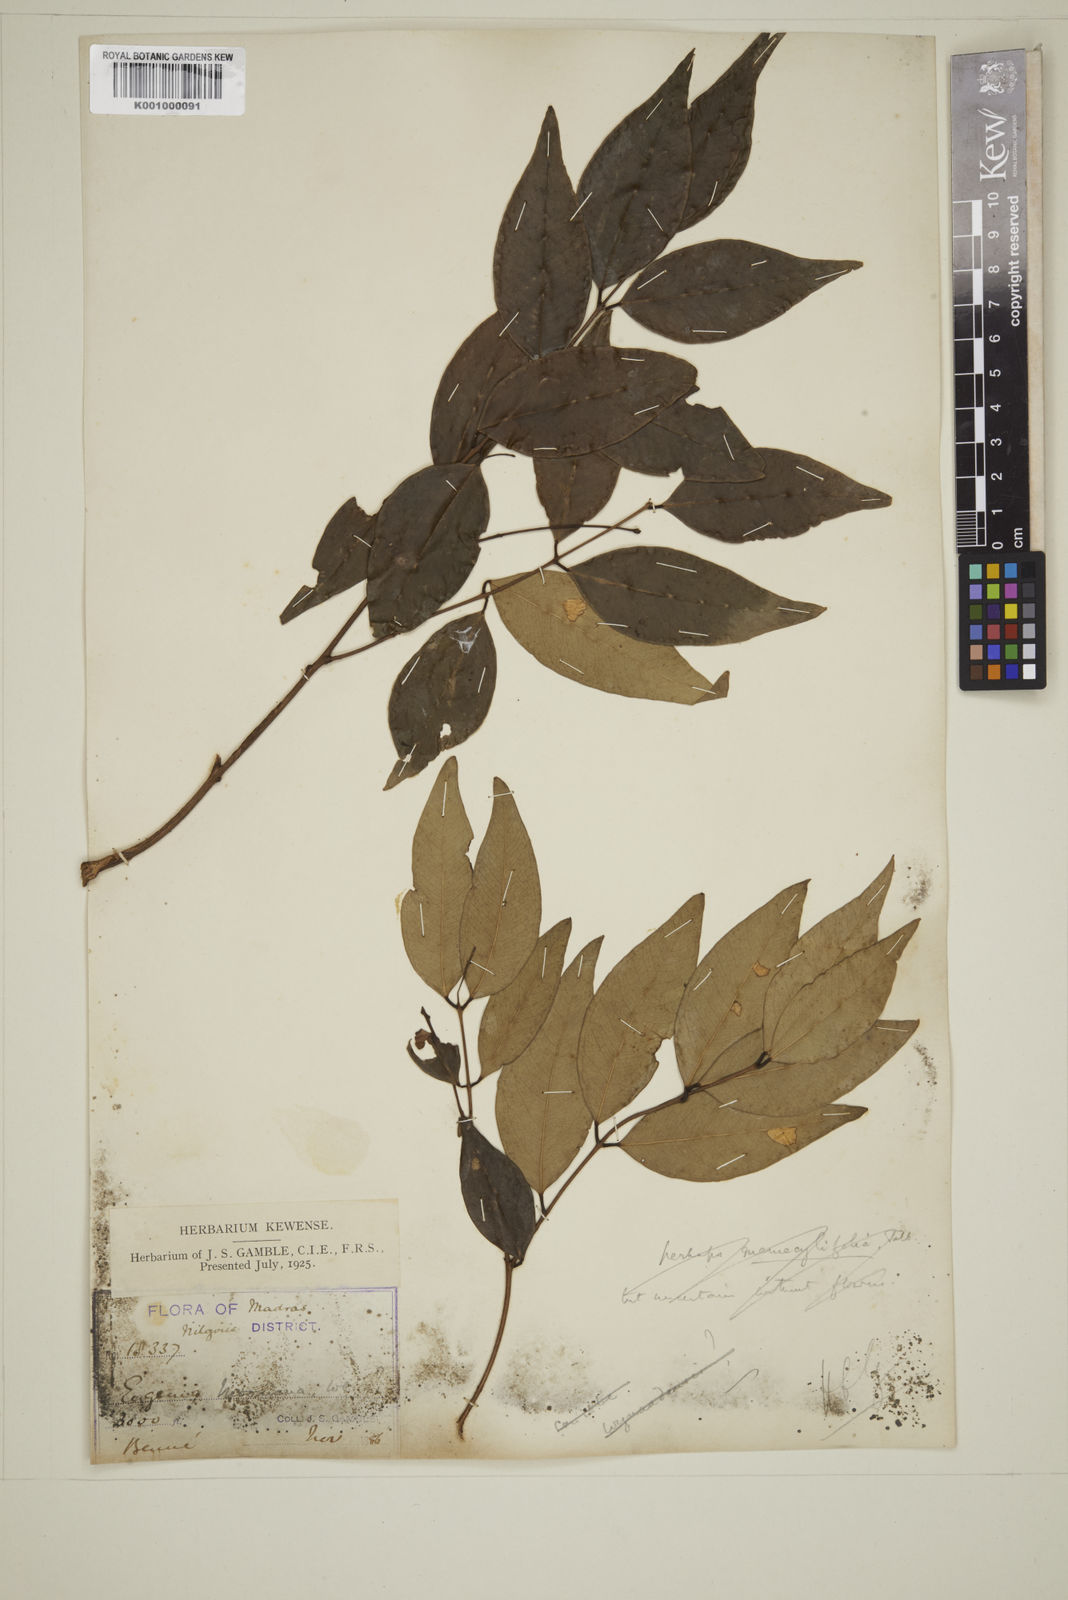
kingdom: Plantae
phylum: Tracheophyta
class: Magnoliopsida
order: Myrtales
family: Myrtaceae
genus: Eugenia
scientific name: Eugenia thwaitesii
